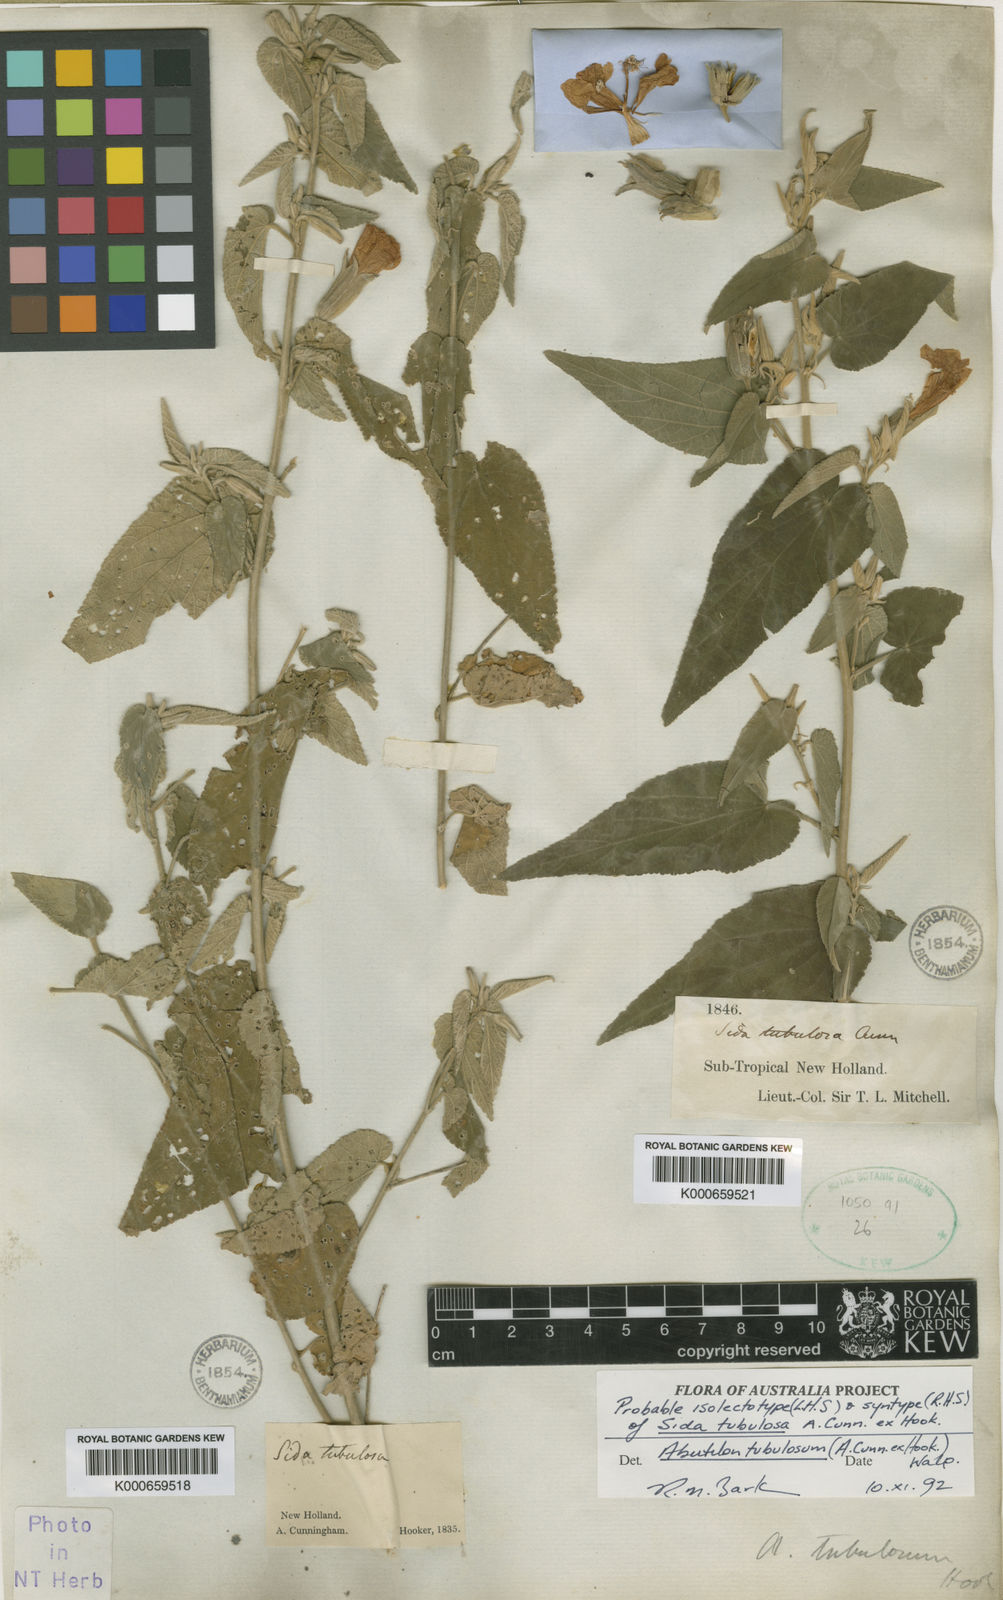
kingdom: Plantae
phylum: Tracheophyta
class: Magnoliopsida
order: Malvales
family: Malvaceae
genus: Abutilon
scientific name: Abutilon tubulosum
